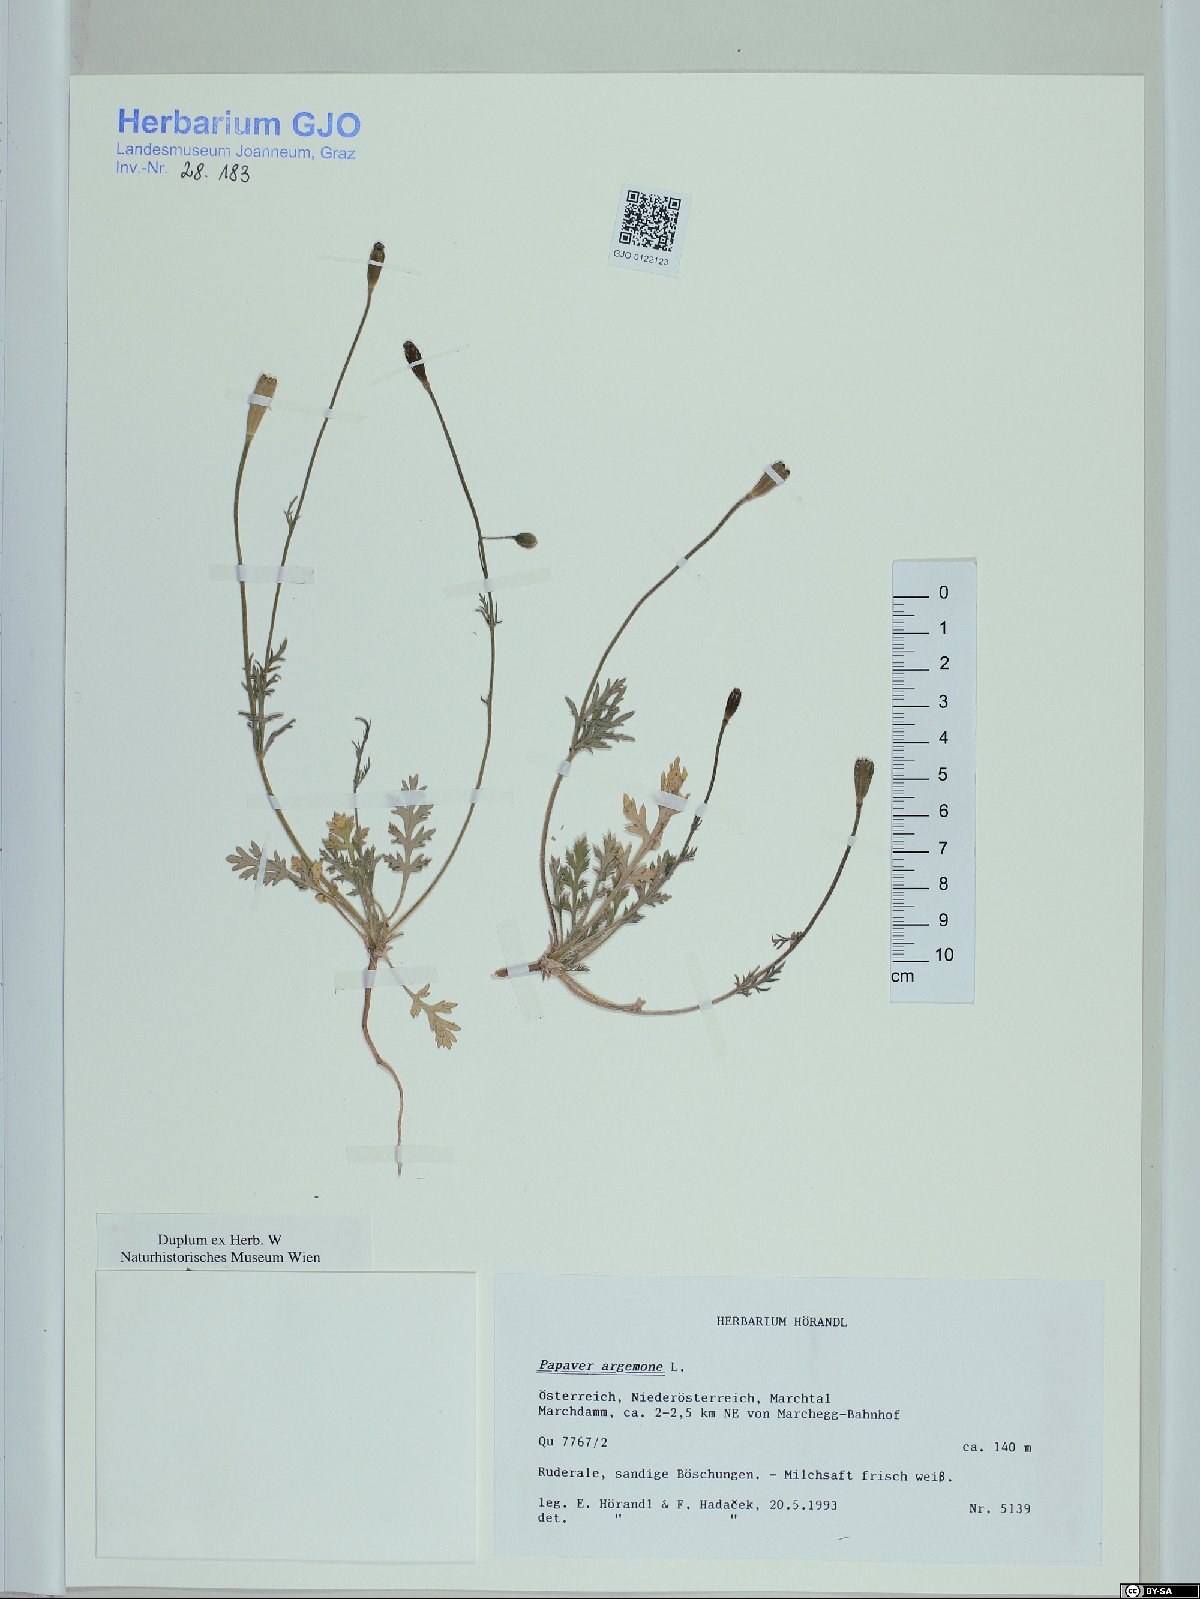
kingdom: Plantae
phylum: Tracheophyta
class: Magnoliopsida
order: Ranunculales
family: Papaveraceae
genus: Roemeria
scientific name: Roemeria argemone
